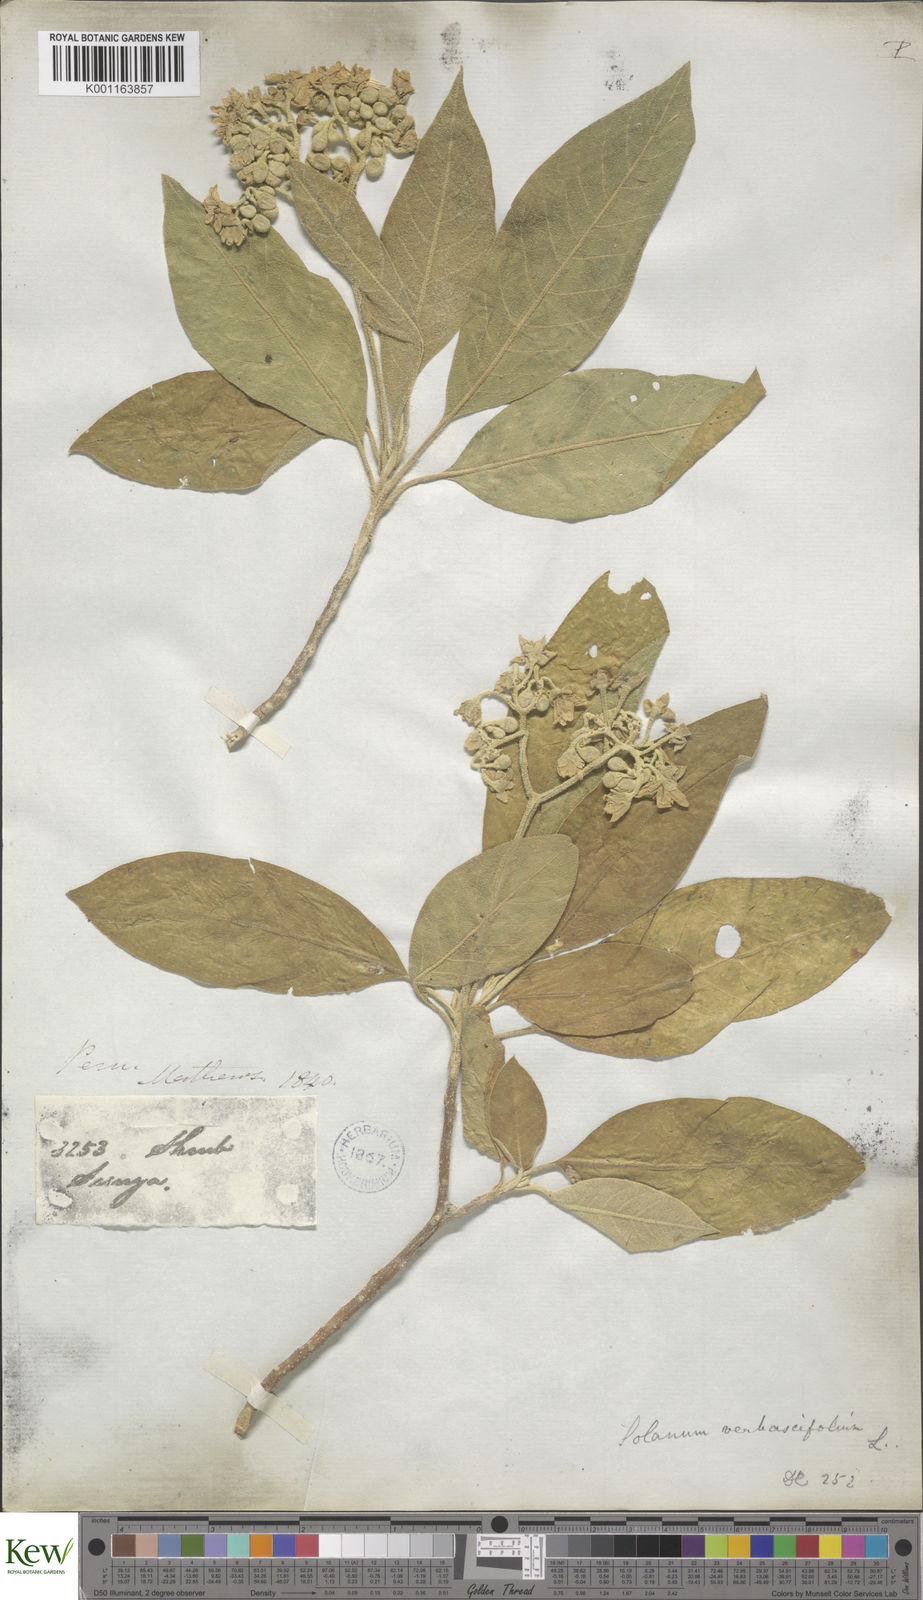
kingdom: Plantae
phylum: Tracheophyta
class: Magnoliopsida
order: Solanales
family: Solanaceae
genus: Solanum
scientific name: Solanum erianthum
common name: Tobacco-tree
